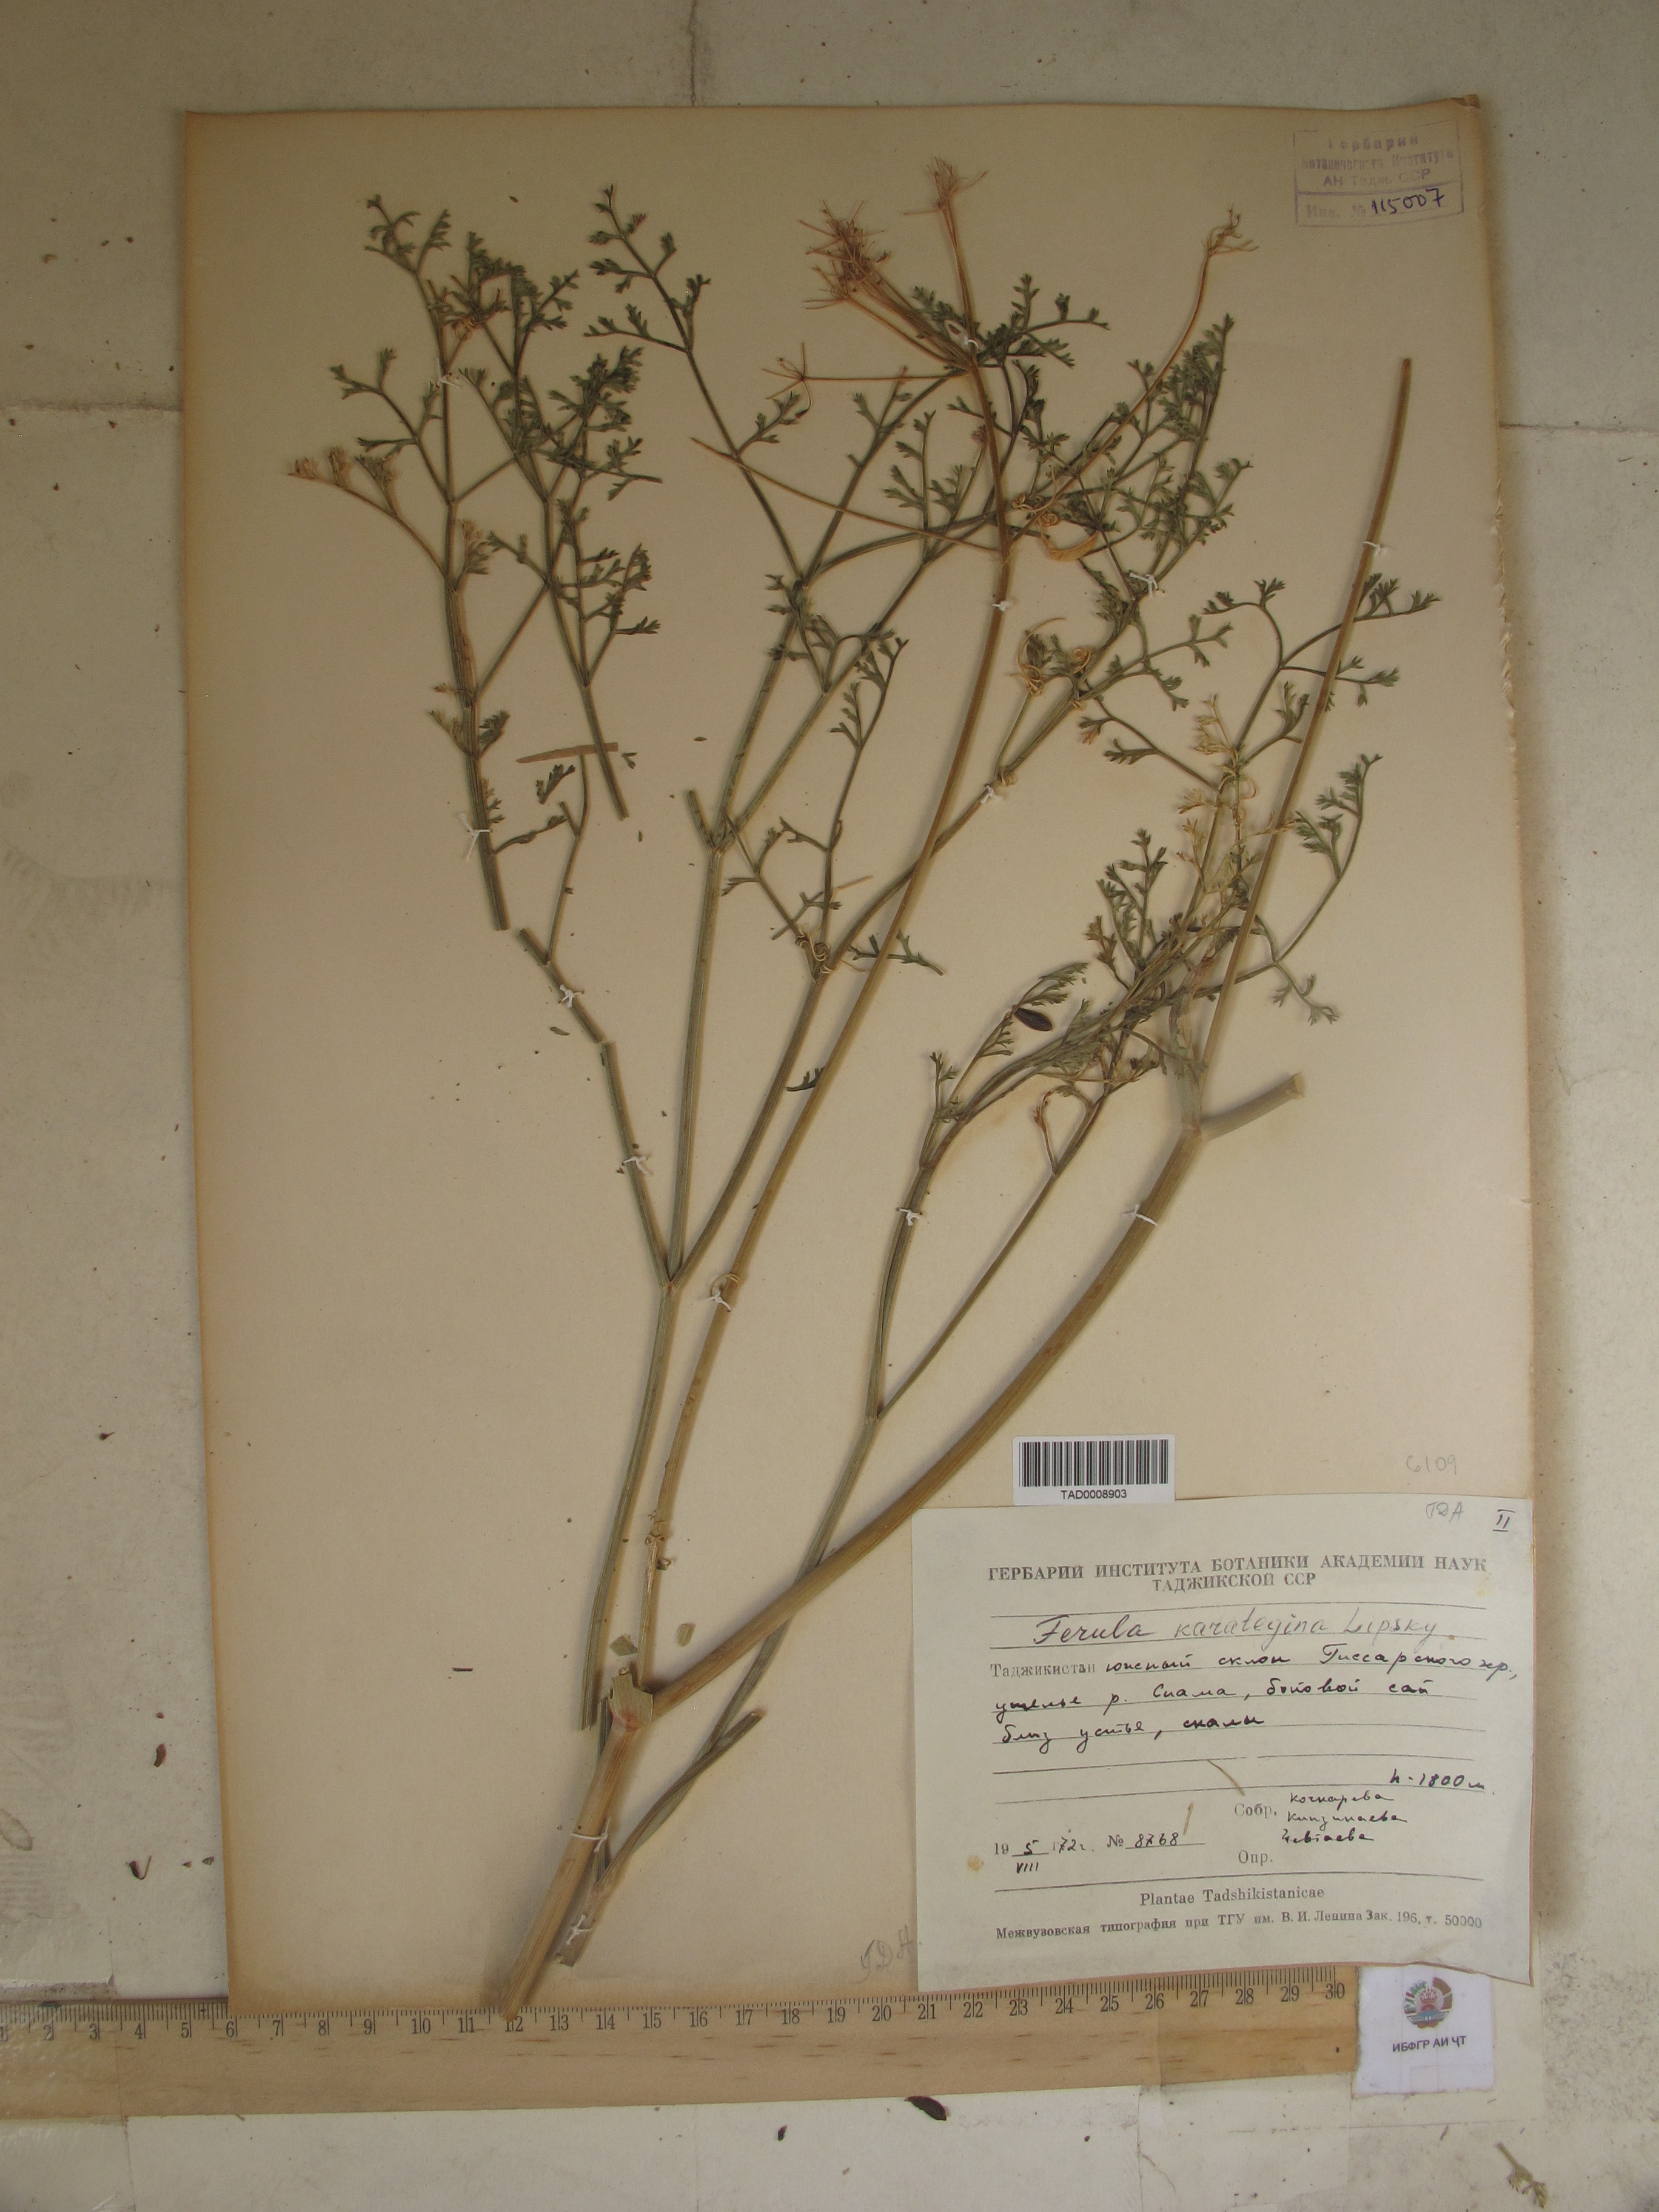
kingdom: Plantae
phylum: Tracheophyta
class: Magnoliopsida
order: Apiales
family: Apiaceae
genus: Ferula
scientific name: Ferula karategina
